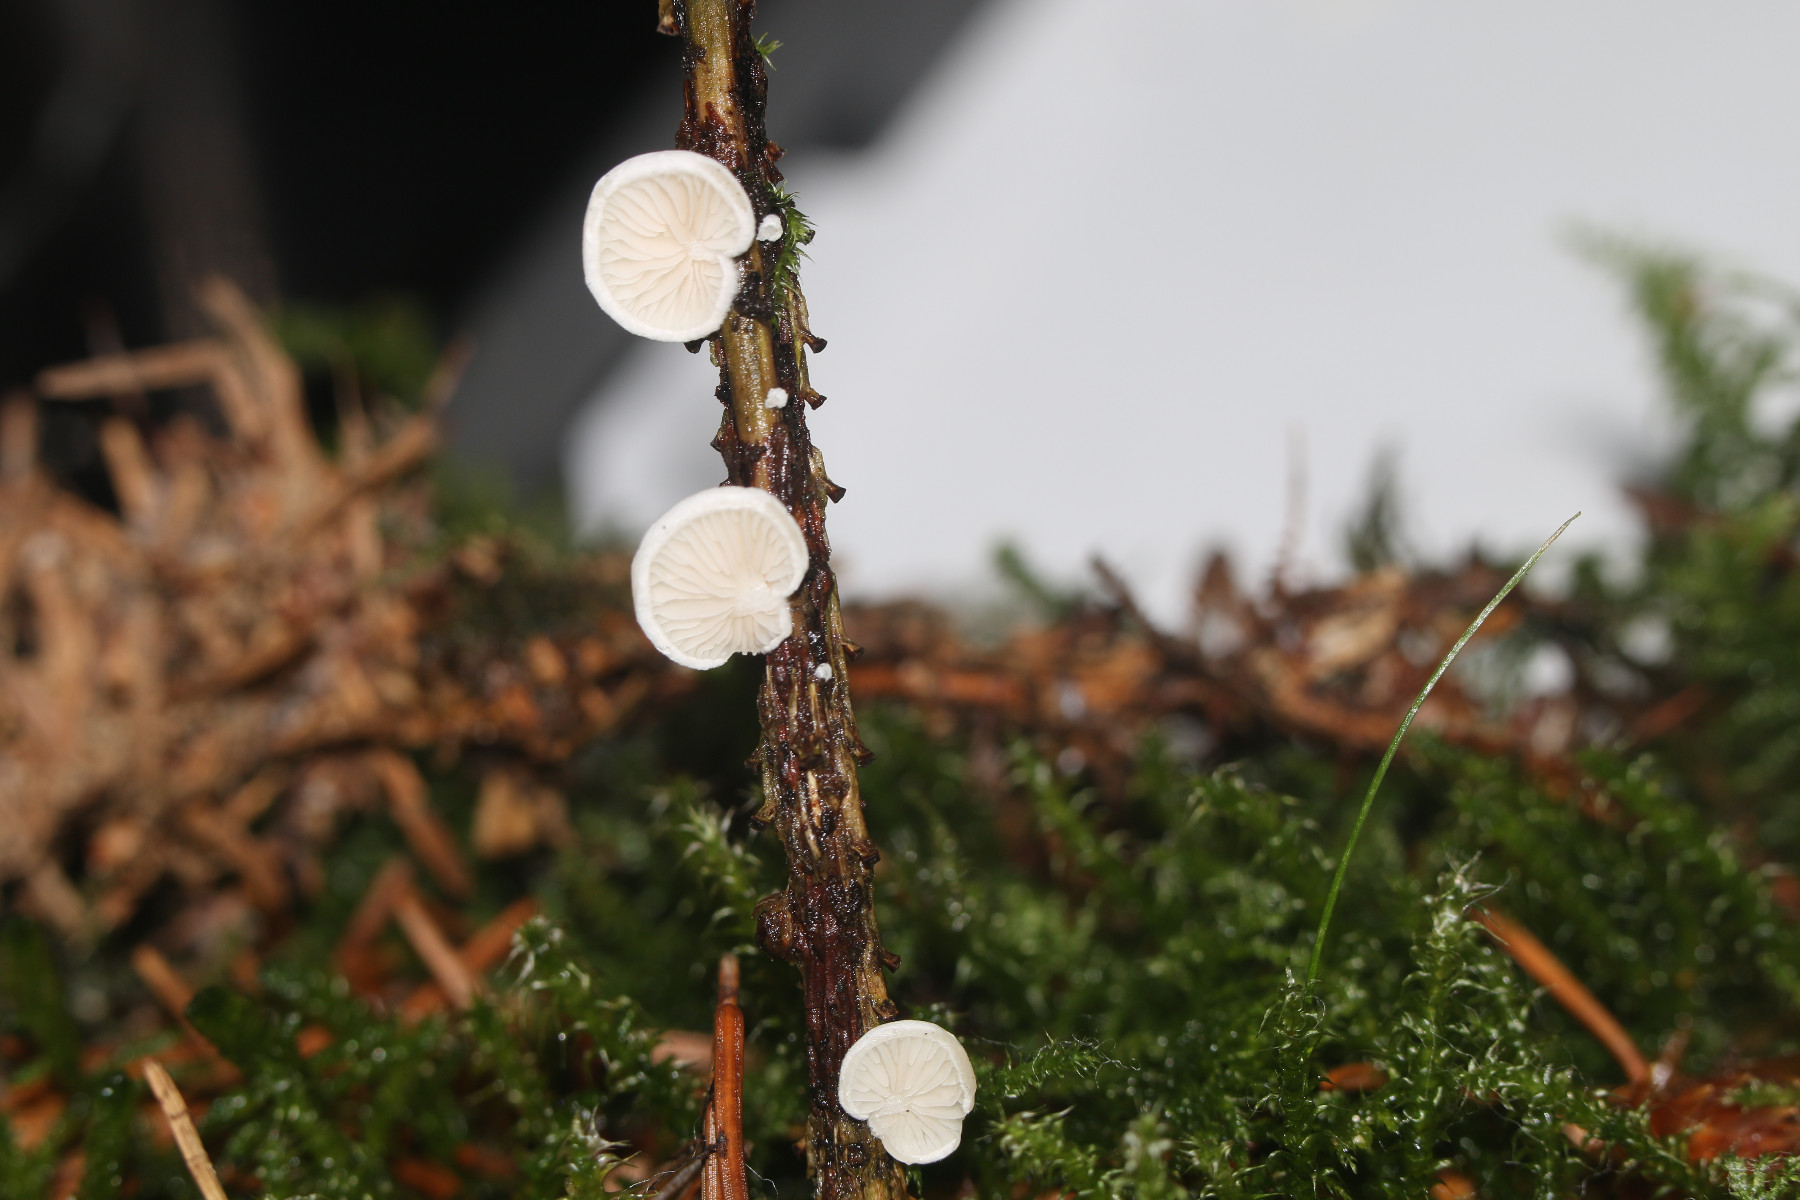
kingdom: Fungi
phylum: Basidiomycota
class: Agaricomycetes
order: Agaricales
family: Crepidotaceae
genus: Crepidotus
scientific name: Crepidotus variabilis
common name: forskelligformet muslingesvamp
